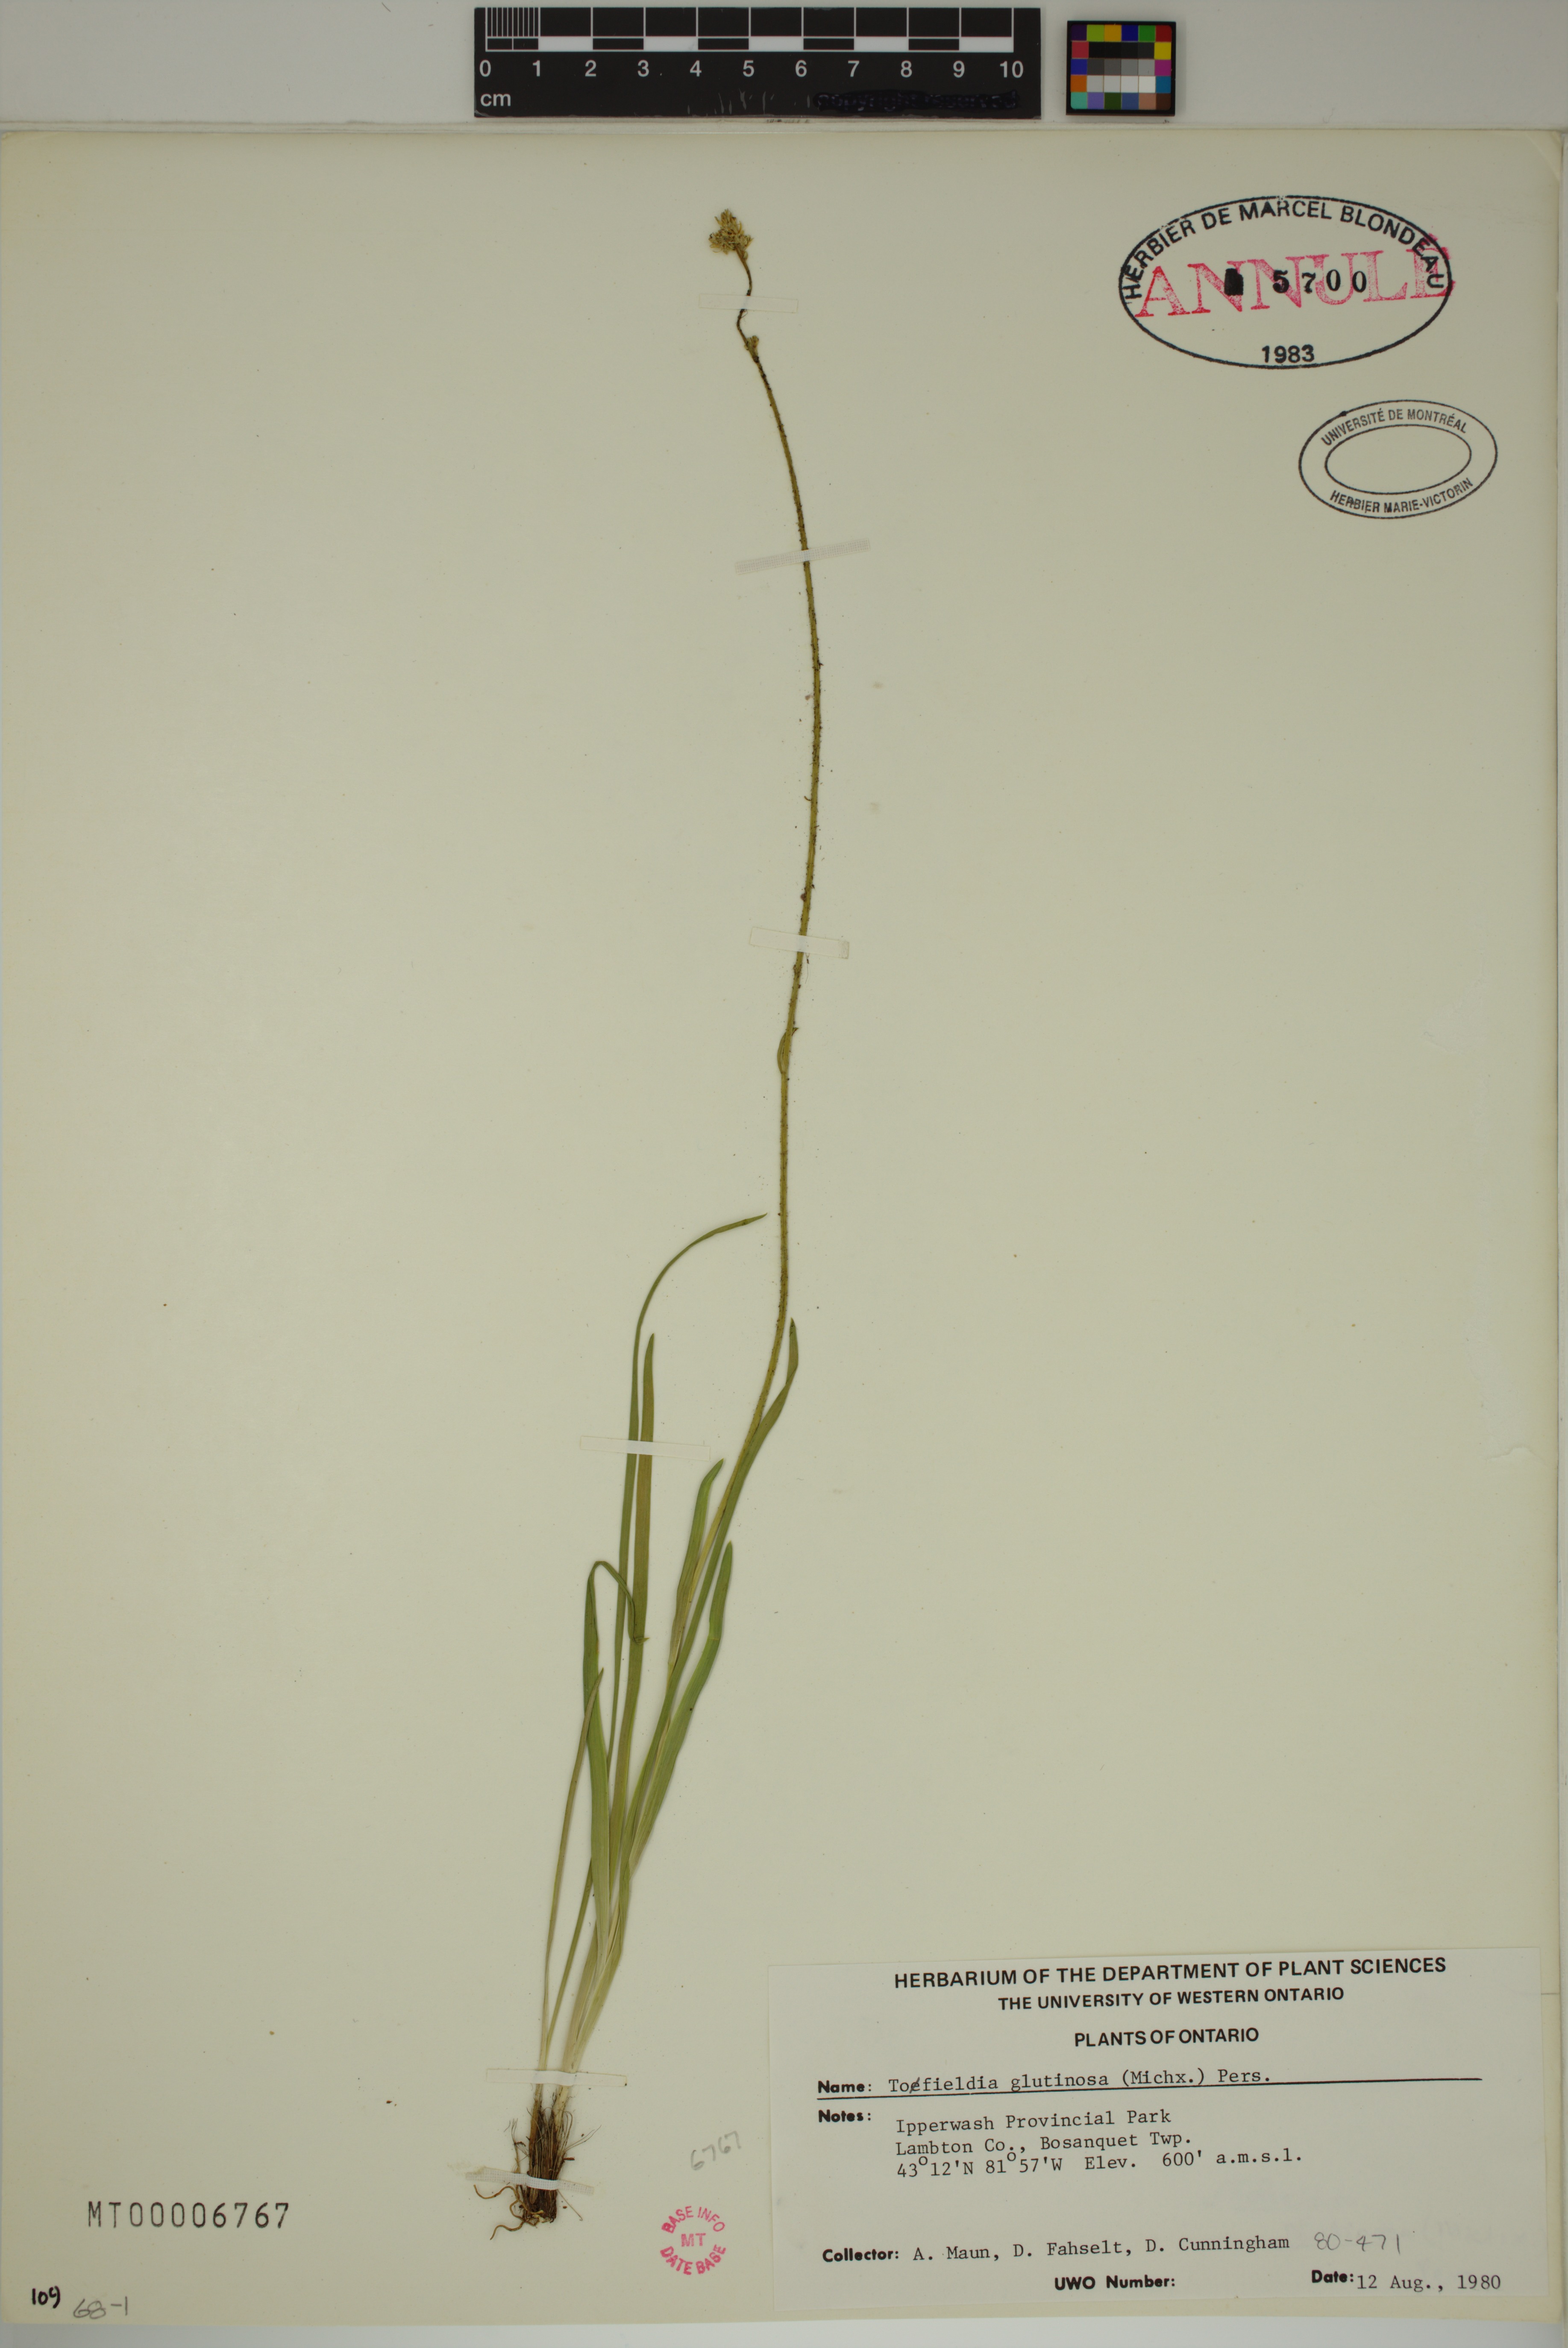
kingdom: Plantae
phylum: Tracheophyta
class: Liliopsida
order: Alismatales
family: Tofieldiaceae
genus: Triantha
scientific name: Triantha glutinosa
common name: Glutinous tofieldia
